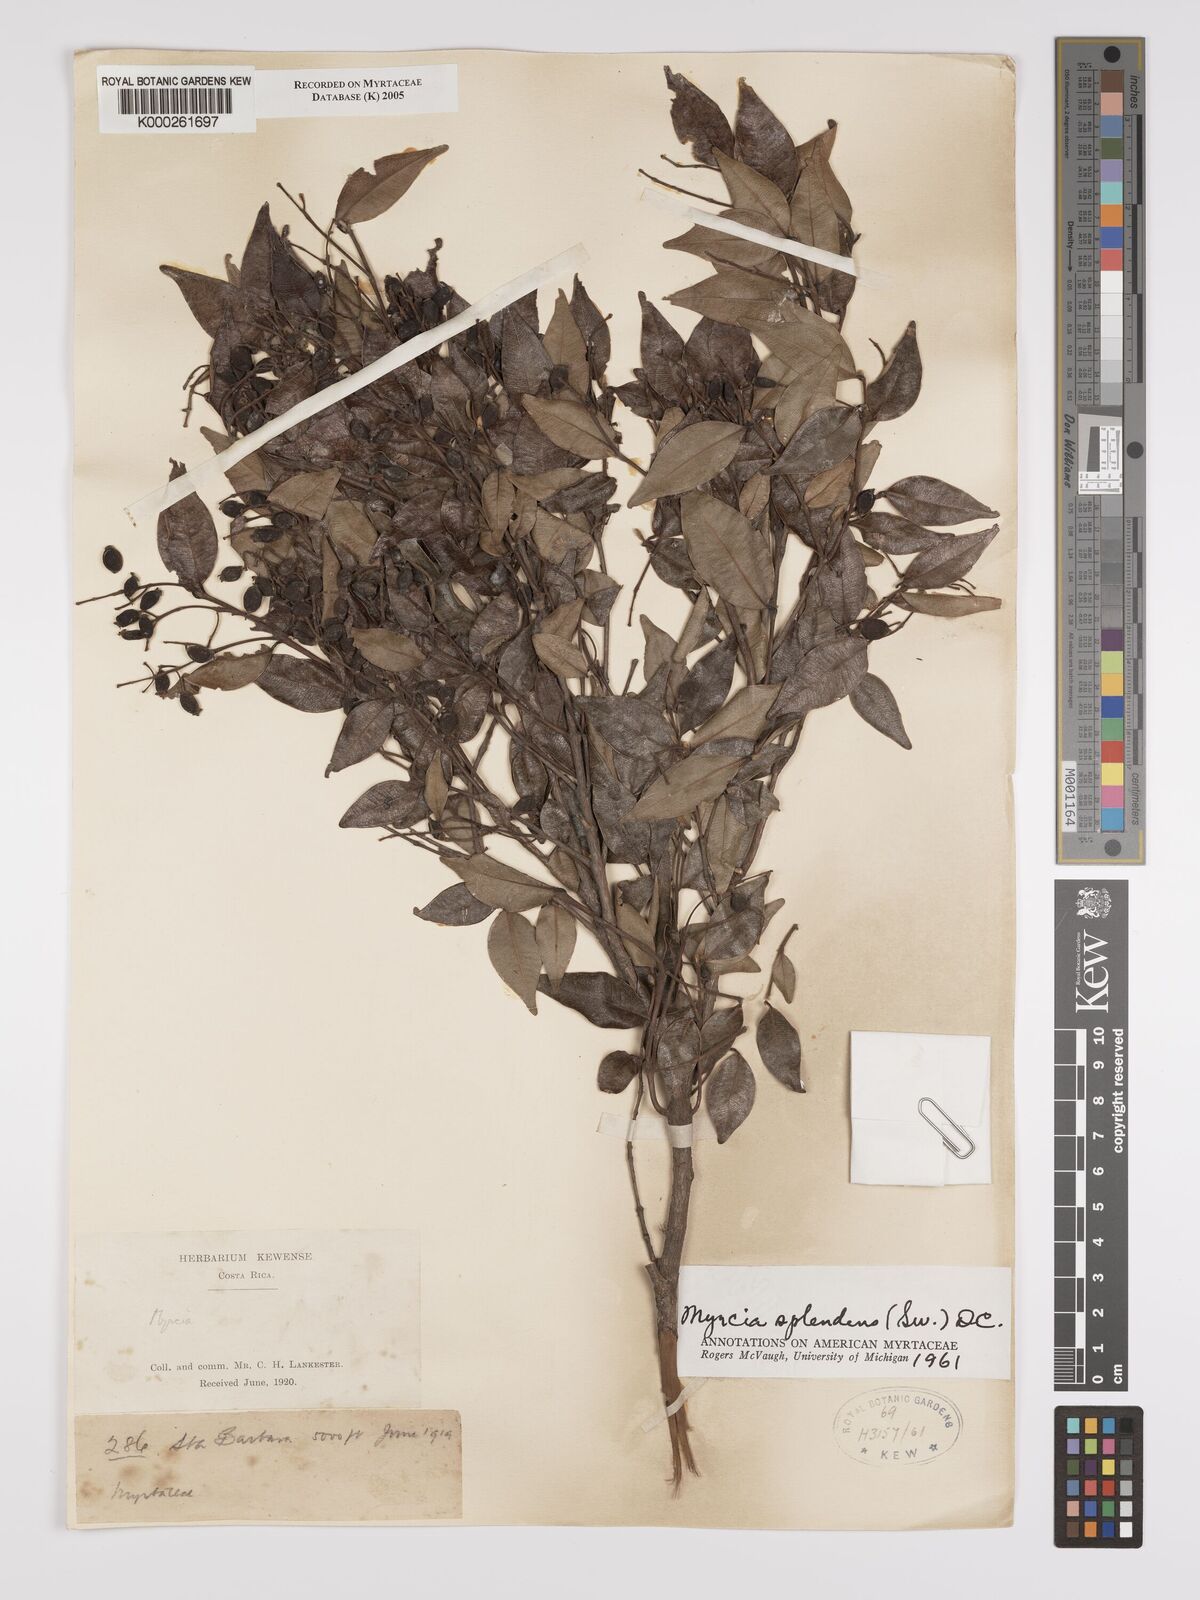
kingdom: Plantae
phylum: Tracheophyta
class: Magnoliopsida
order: Myrtales
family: Myrtaceae
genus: Myrcia
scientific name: Myrcia splendens
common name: Surinam cherry
